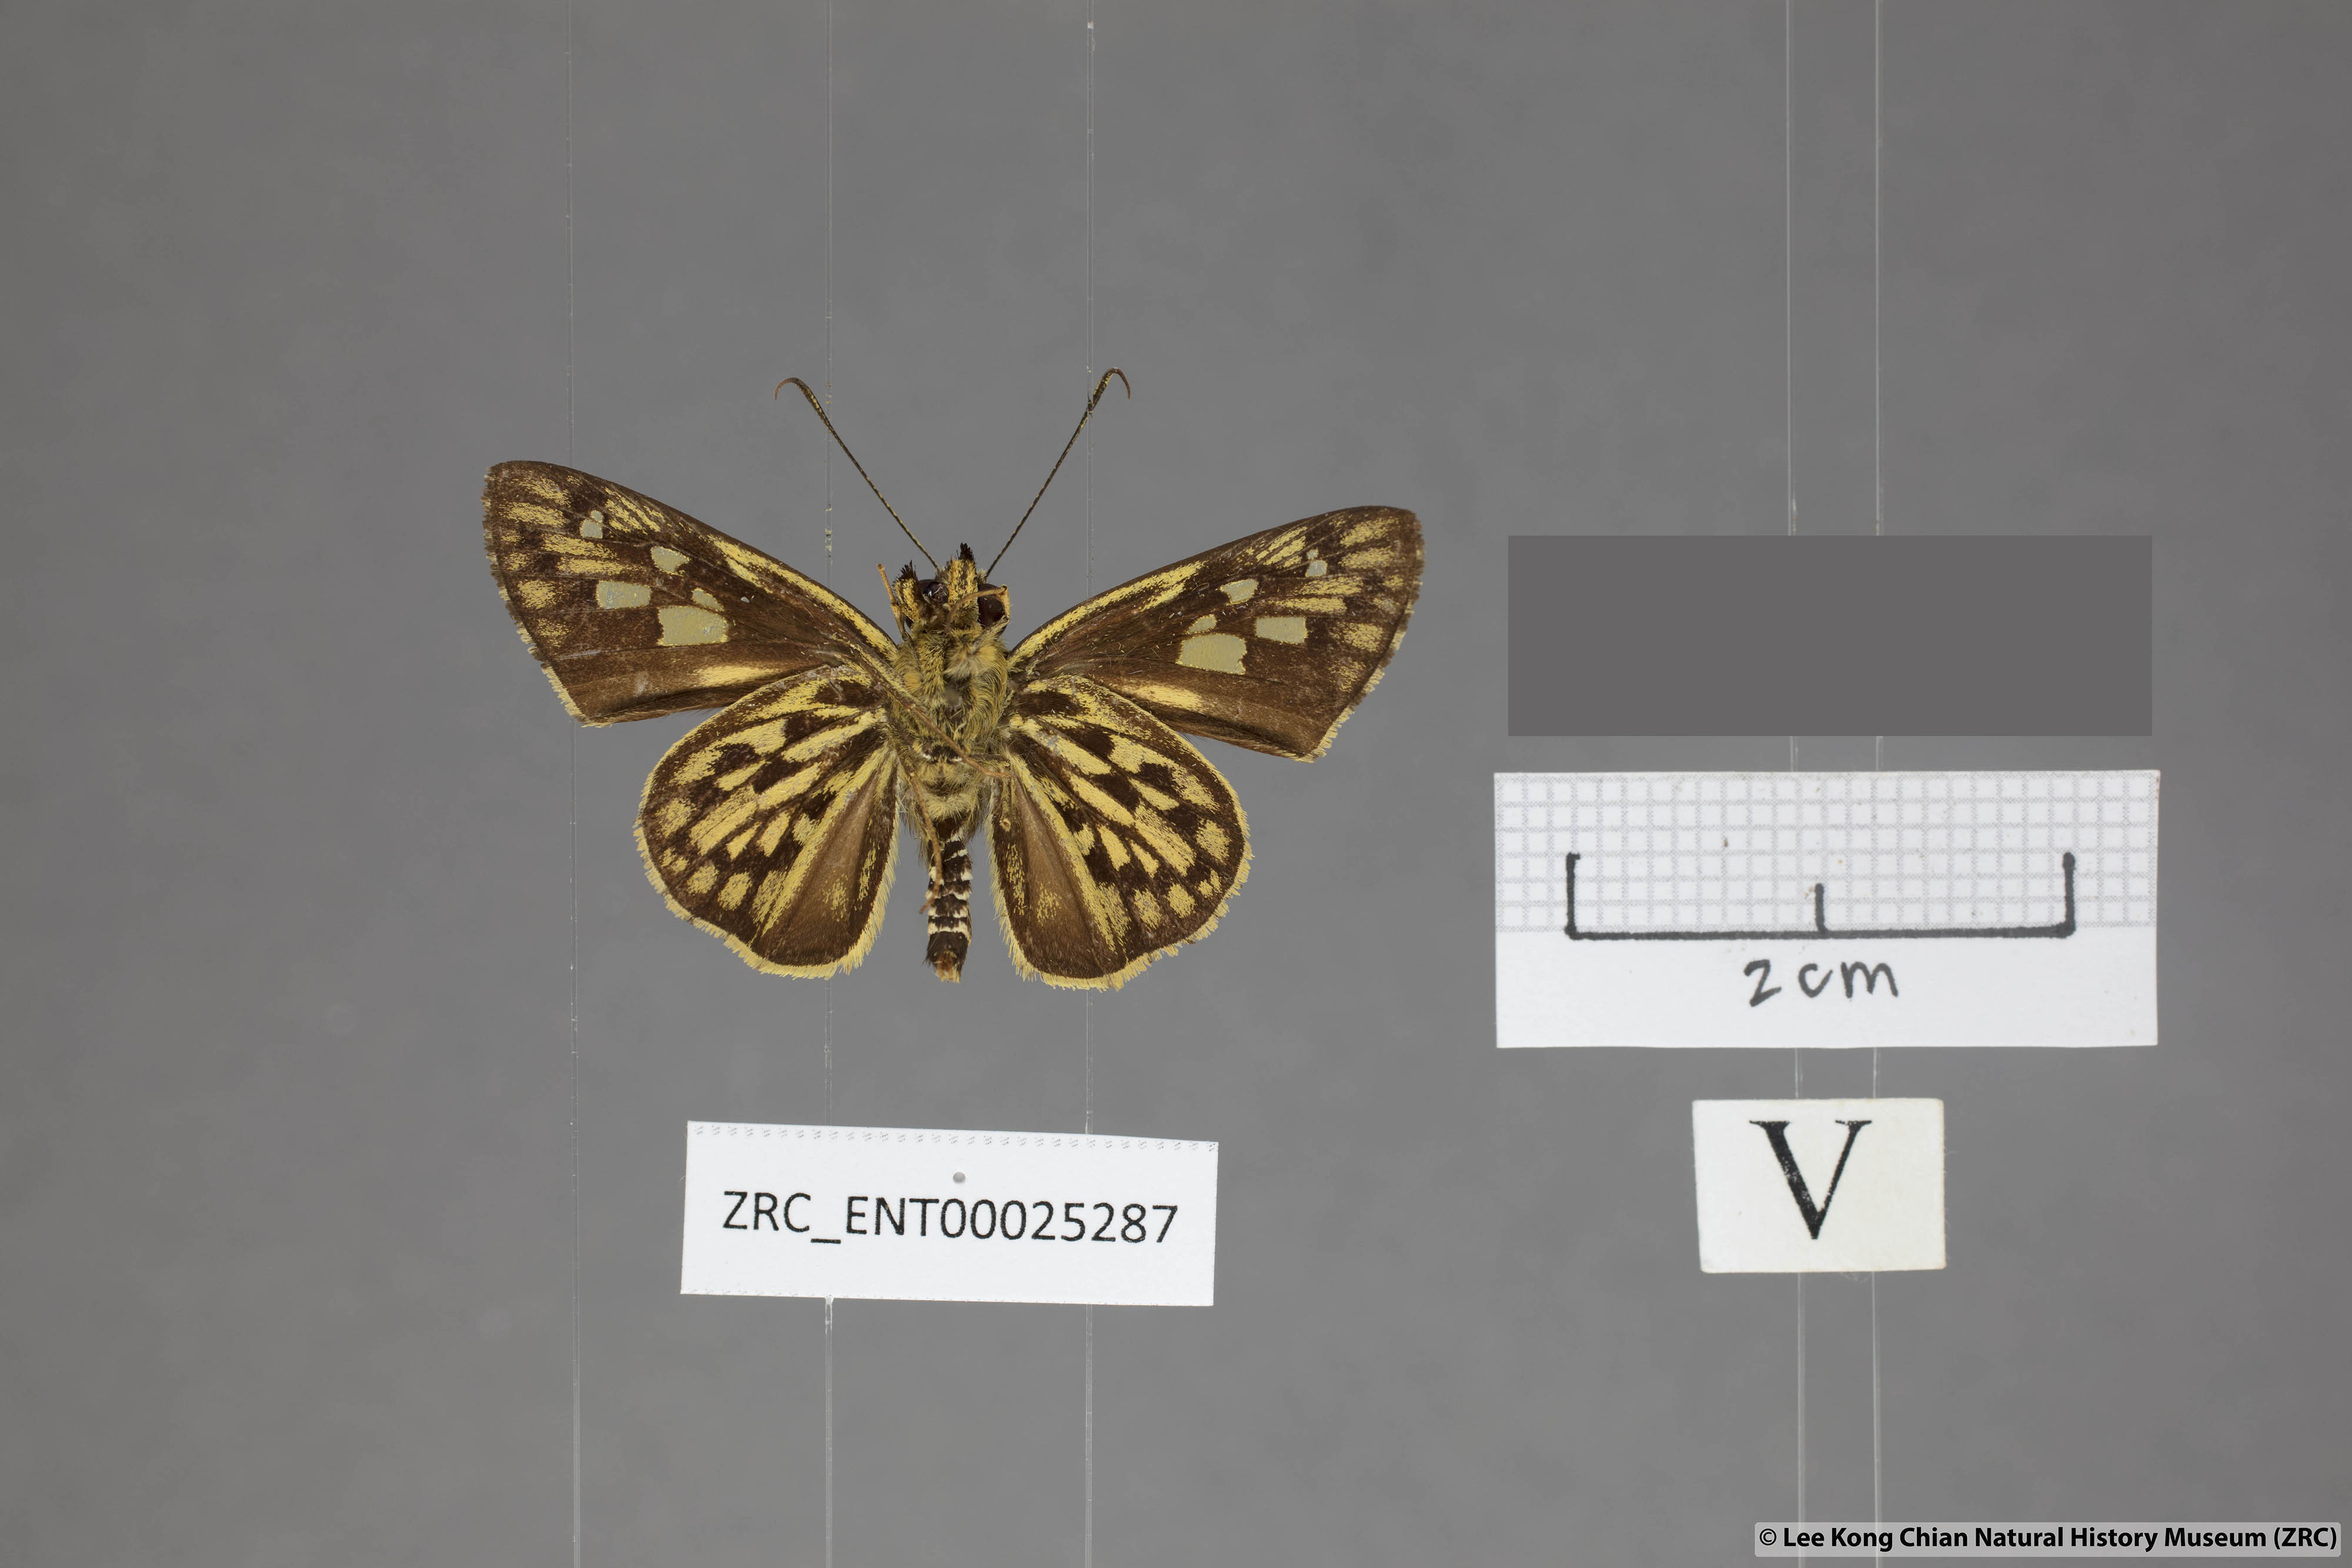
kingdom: Animalia
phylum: Arthropoda
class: Insecta
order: Lepidoptera
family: Hesperiidae
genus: Plastingia
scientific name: Plastingia pellonia
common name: Yellow chequered lancer
